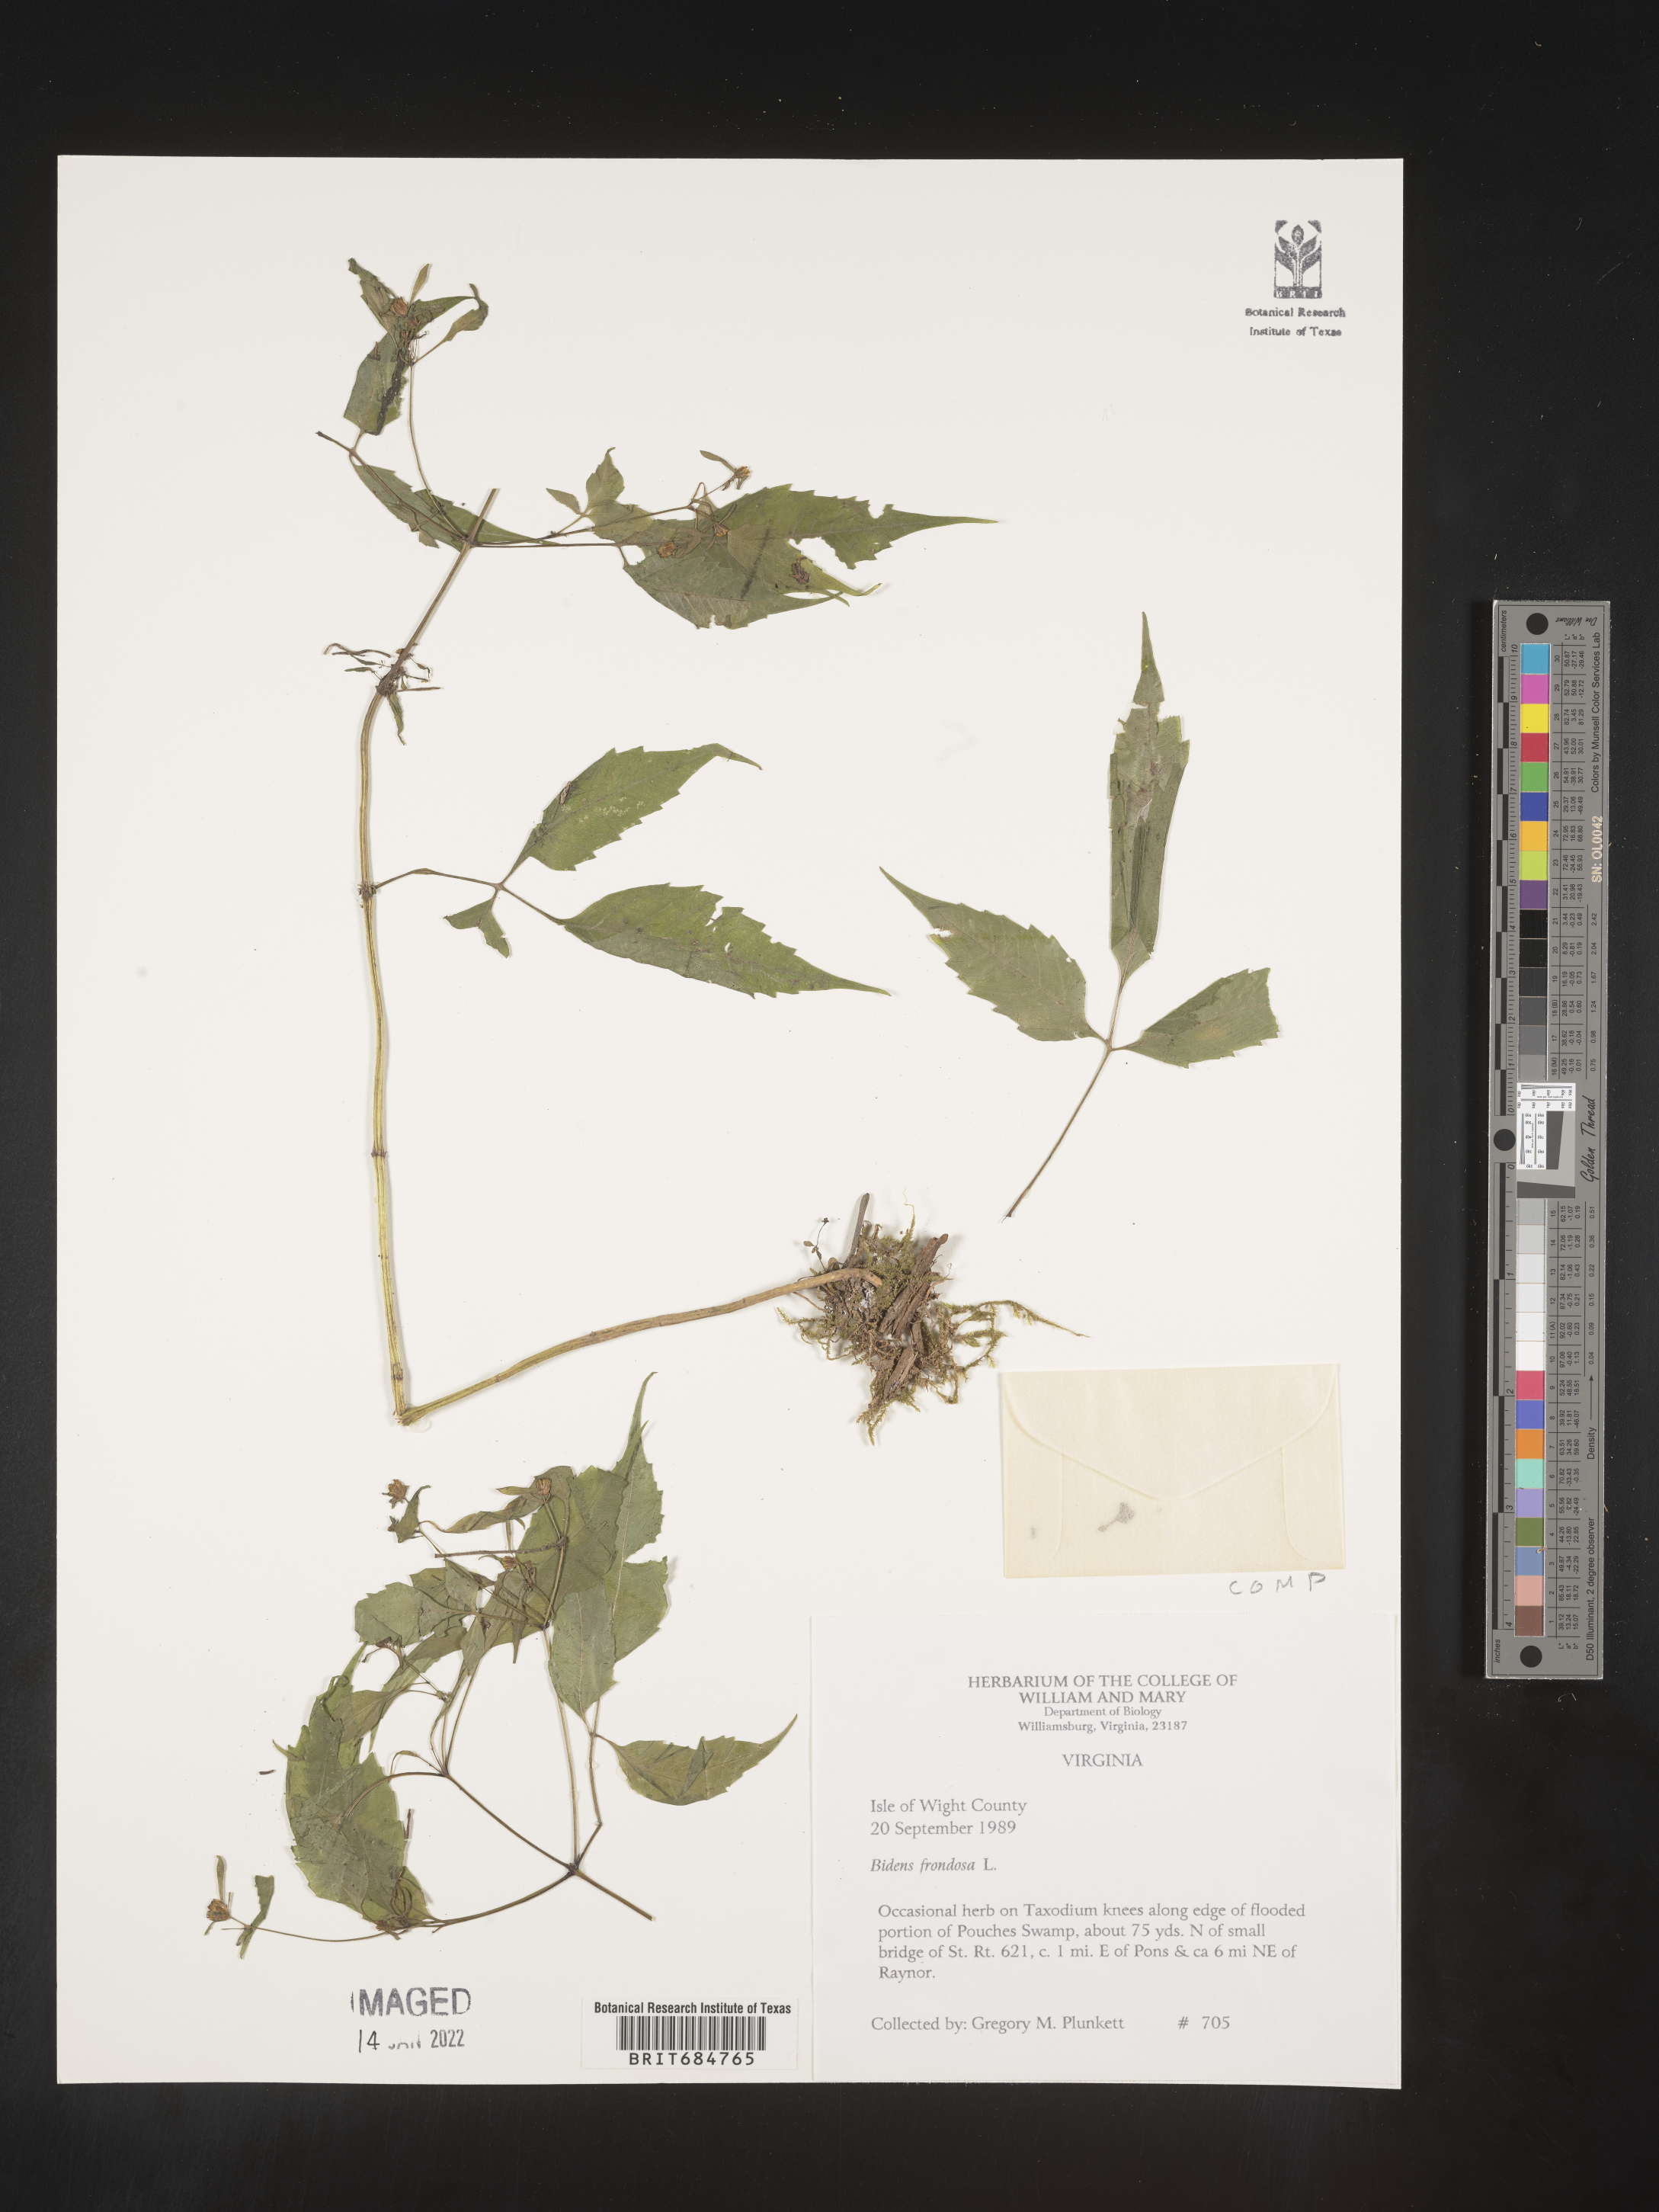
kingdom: Plantae
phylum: Tracheophyta
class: Magnoliopsida
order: Asterales
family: Asteraceae
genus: Bidens
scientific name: Bidens frondosa
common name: Beggarticks
